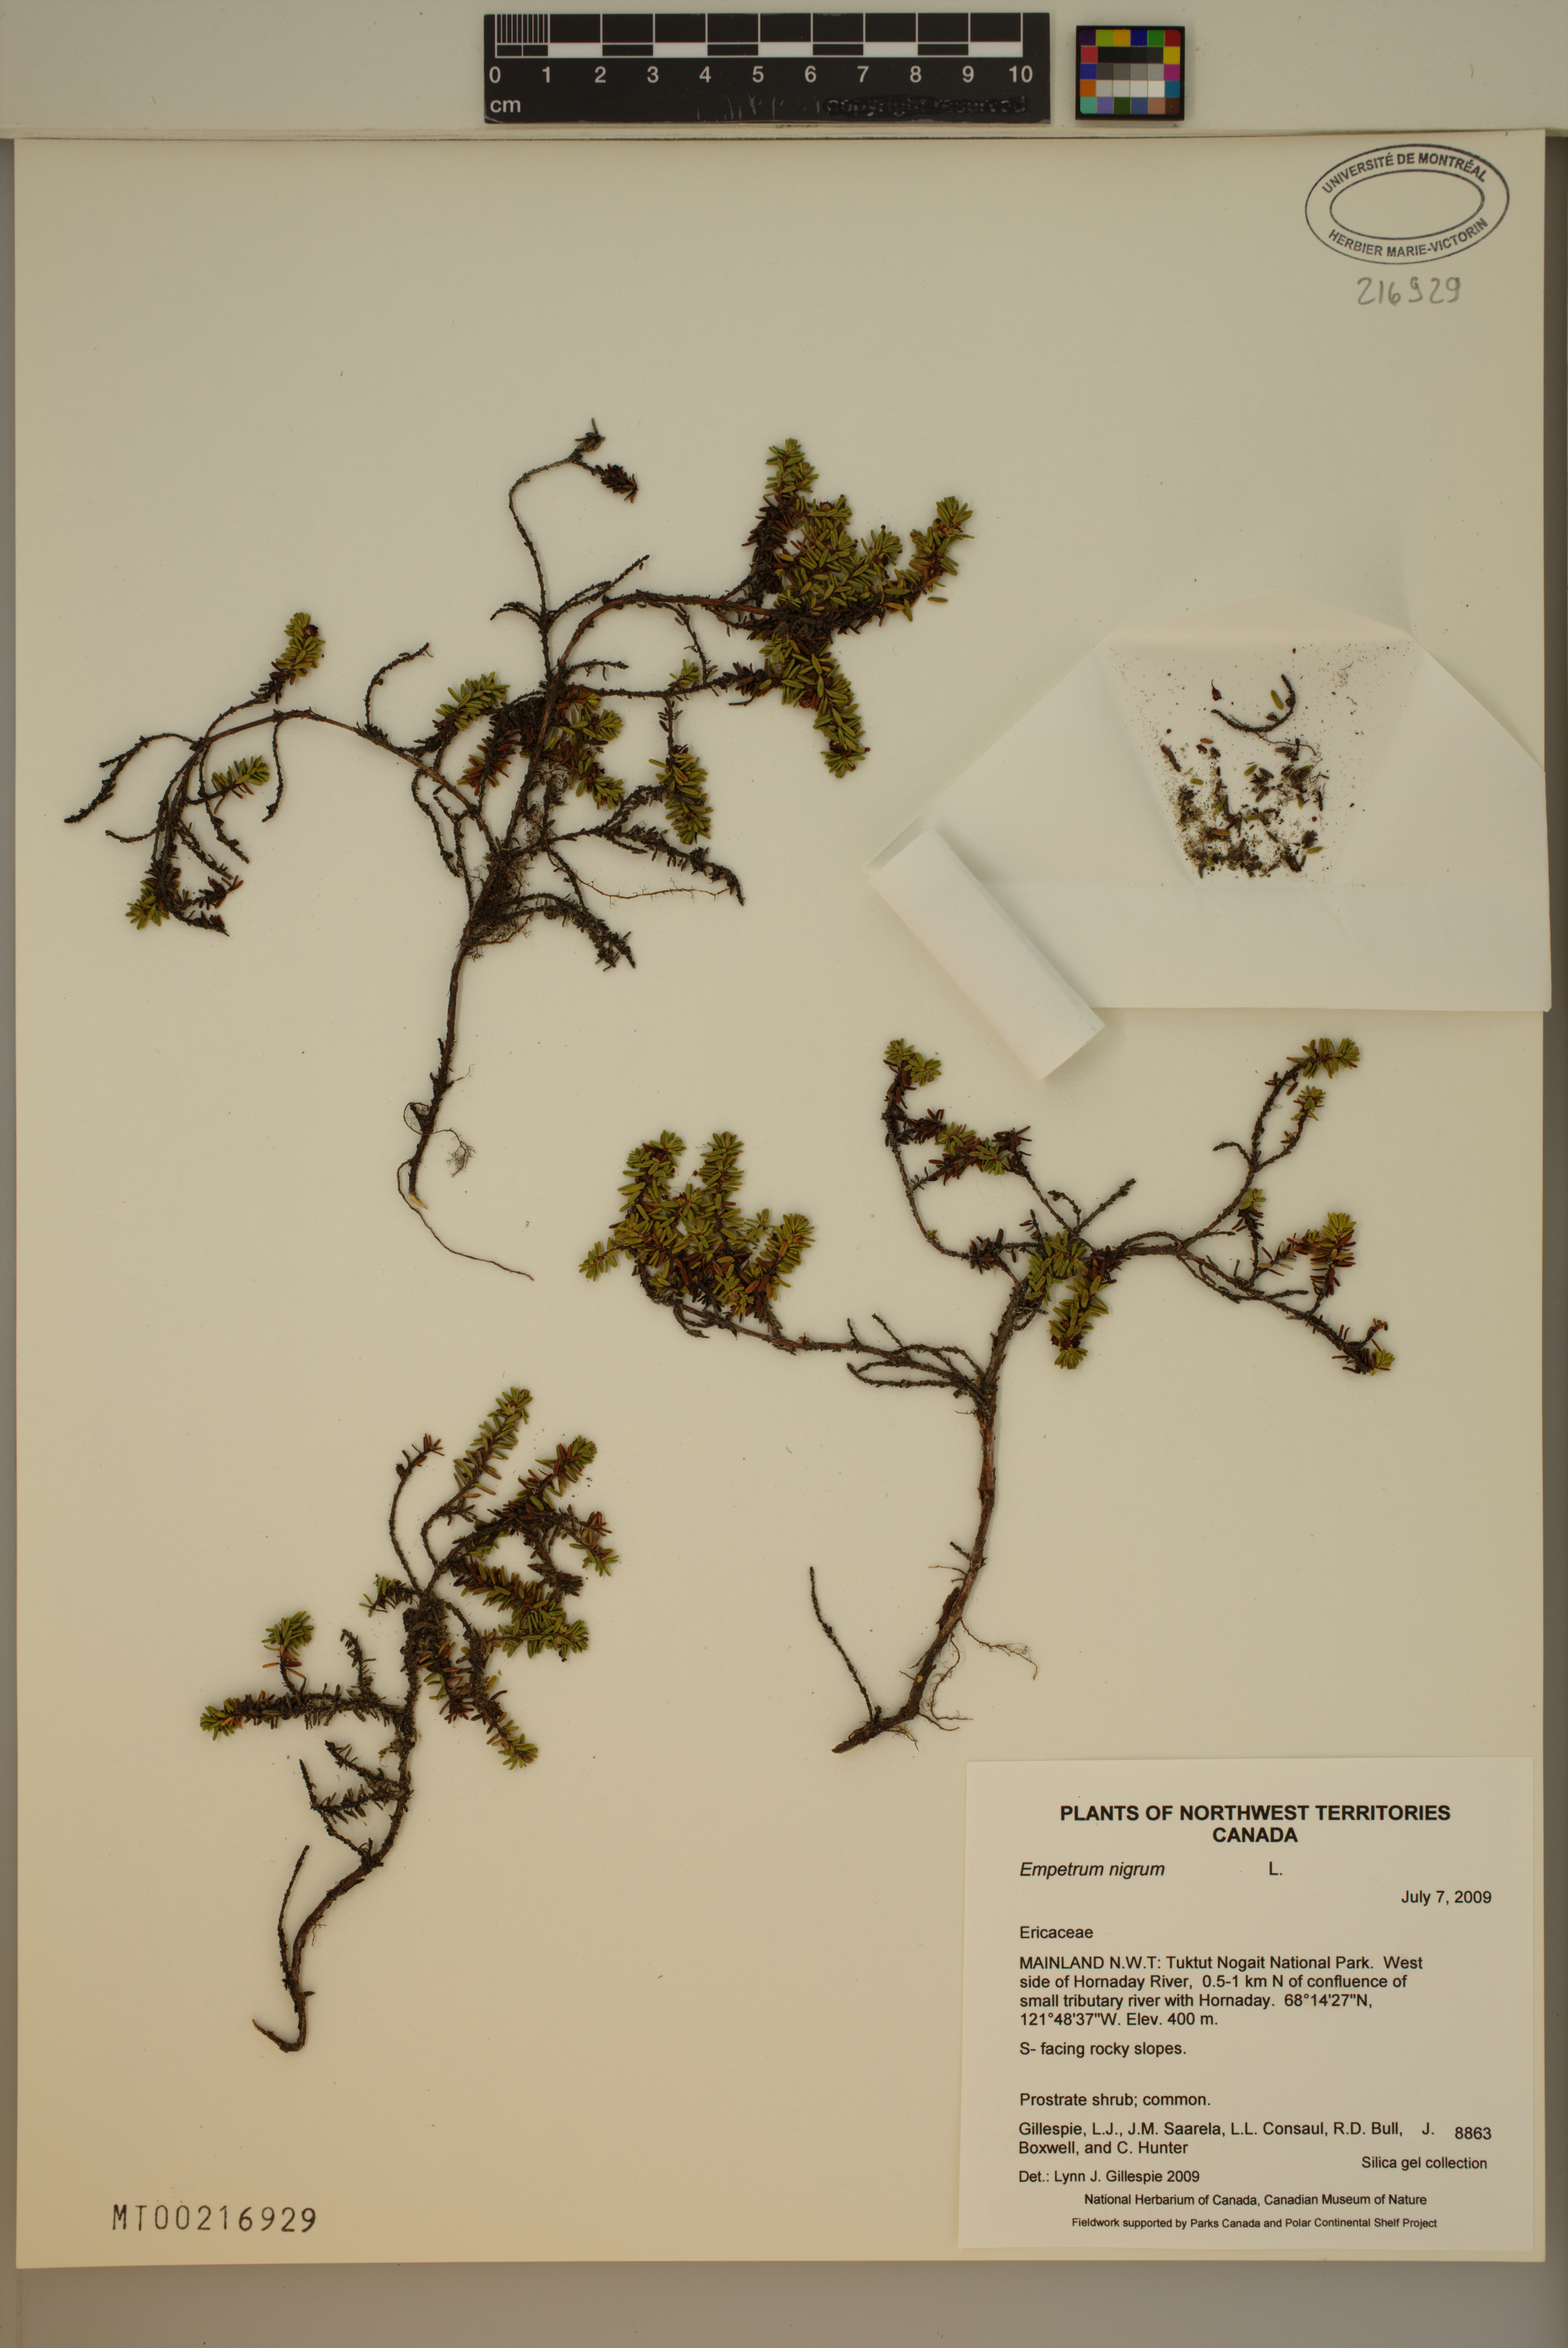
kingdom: Plantae
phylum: Tracheophyta
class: Magnoliopsida
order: Ericales
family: Ericaceae
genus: Empetrum
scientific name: Empetrum nigrum
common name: Black crowberry
